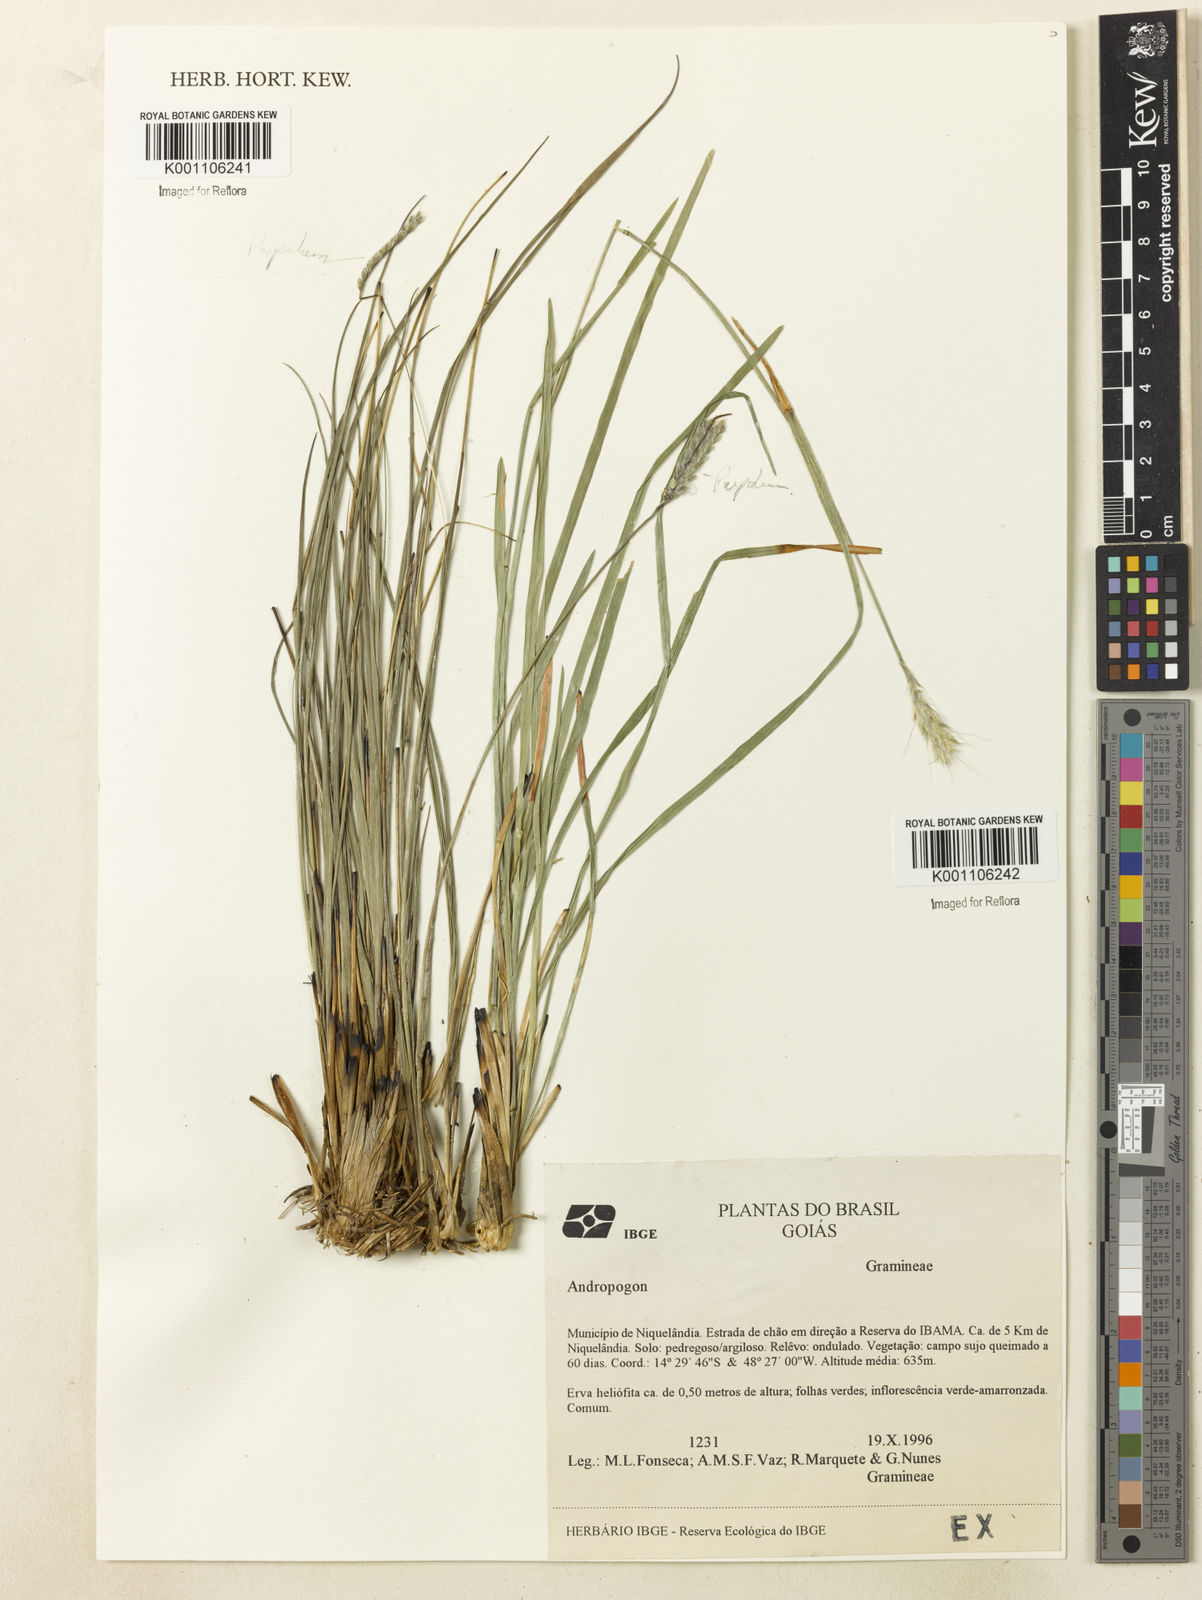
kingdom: Plantae
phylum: Tracheophyta
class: Liliopsida
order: Poales
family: Poaceae
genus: Andropogon
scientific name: Andropogon
